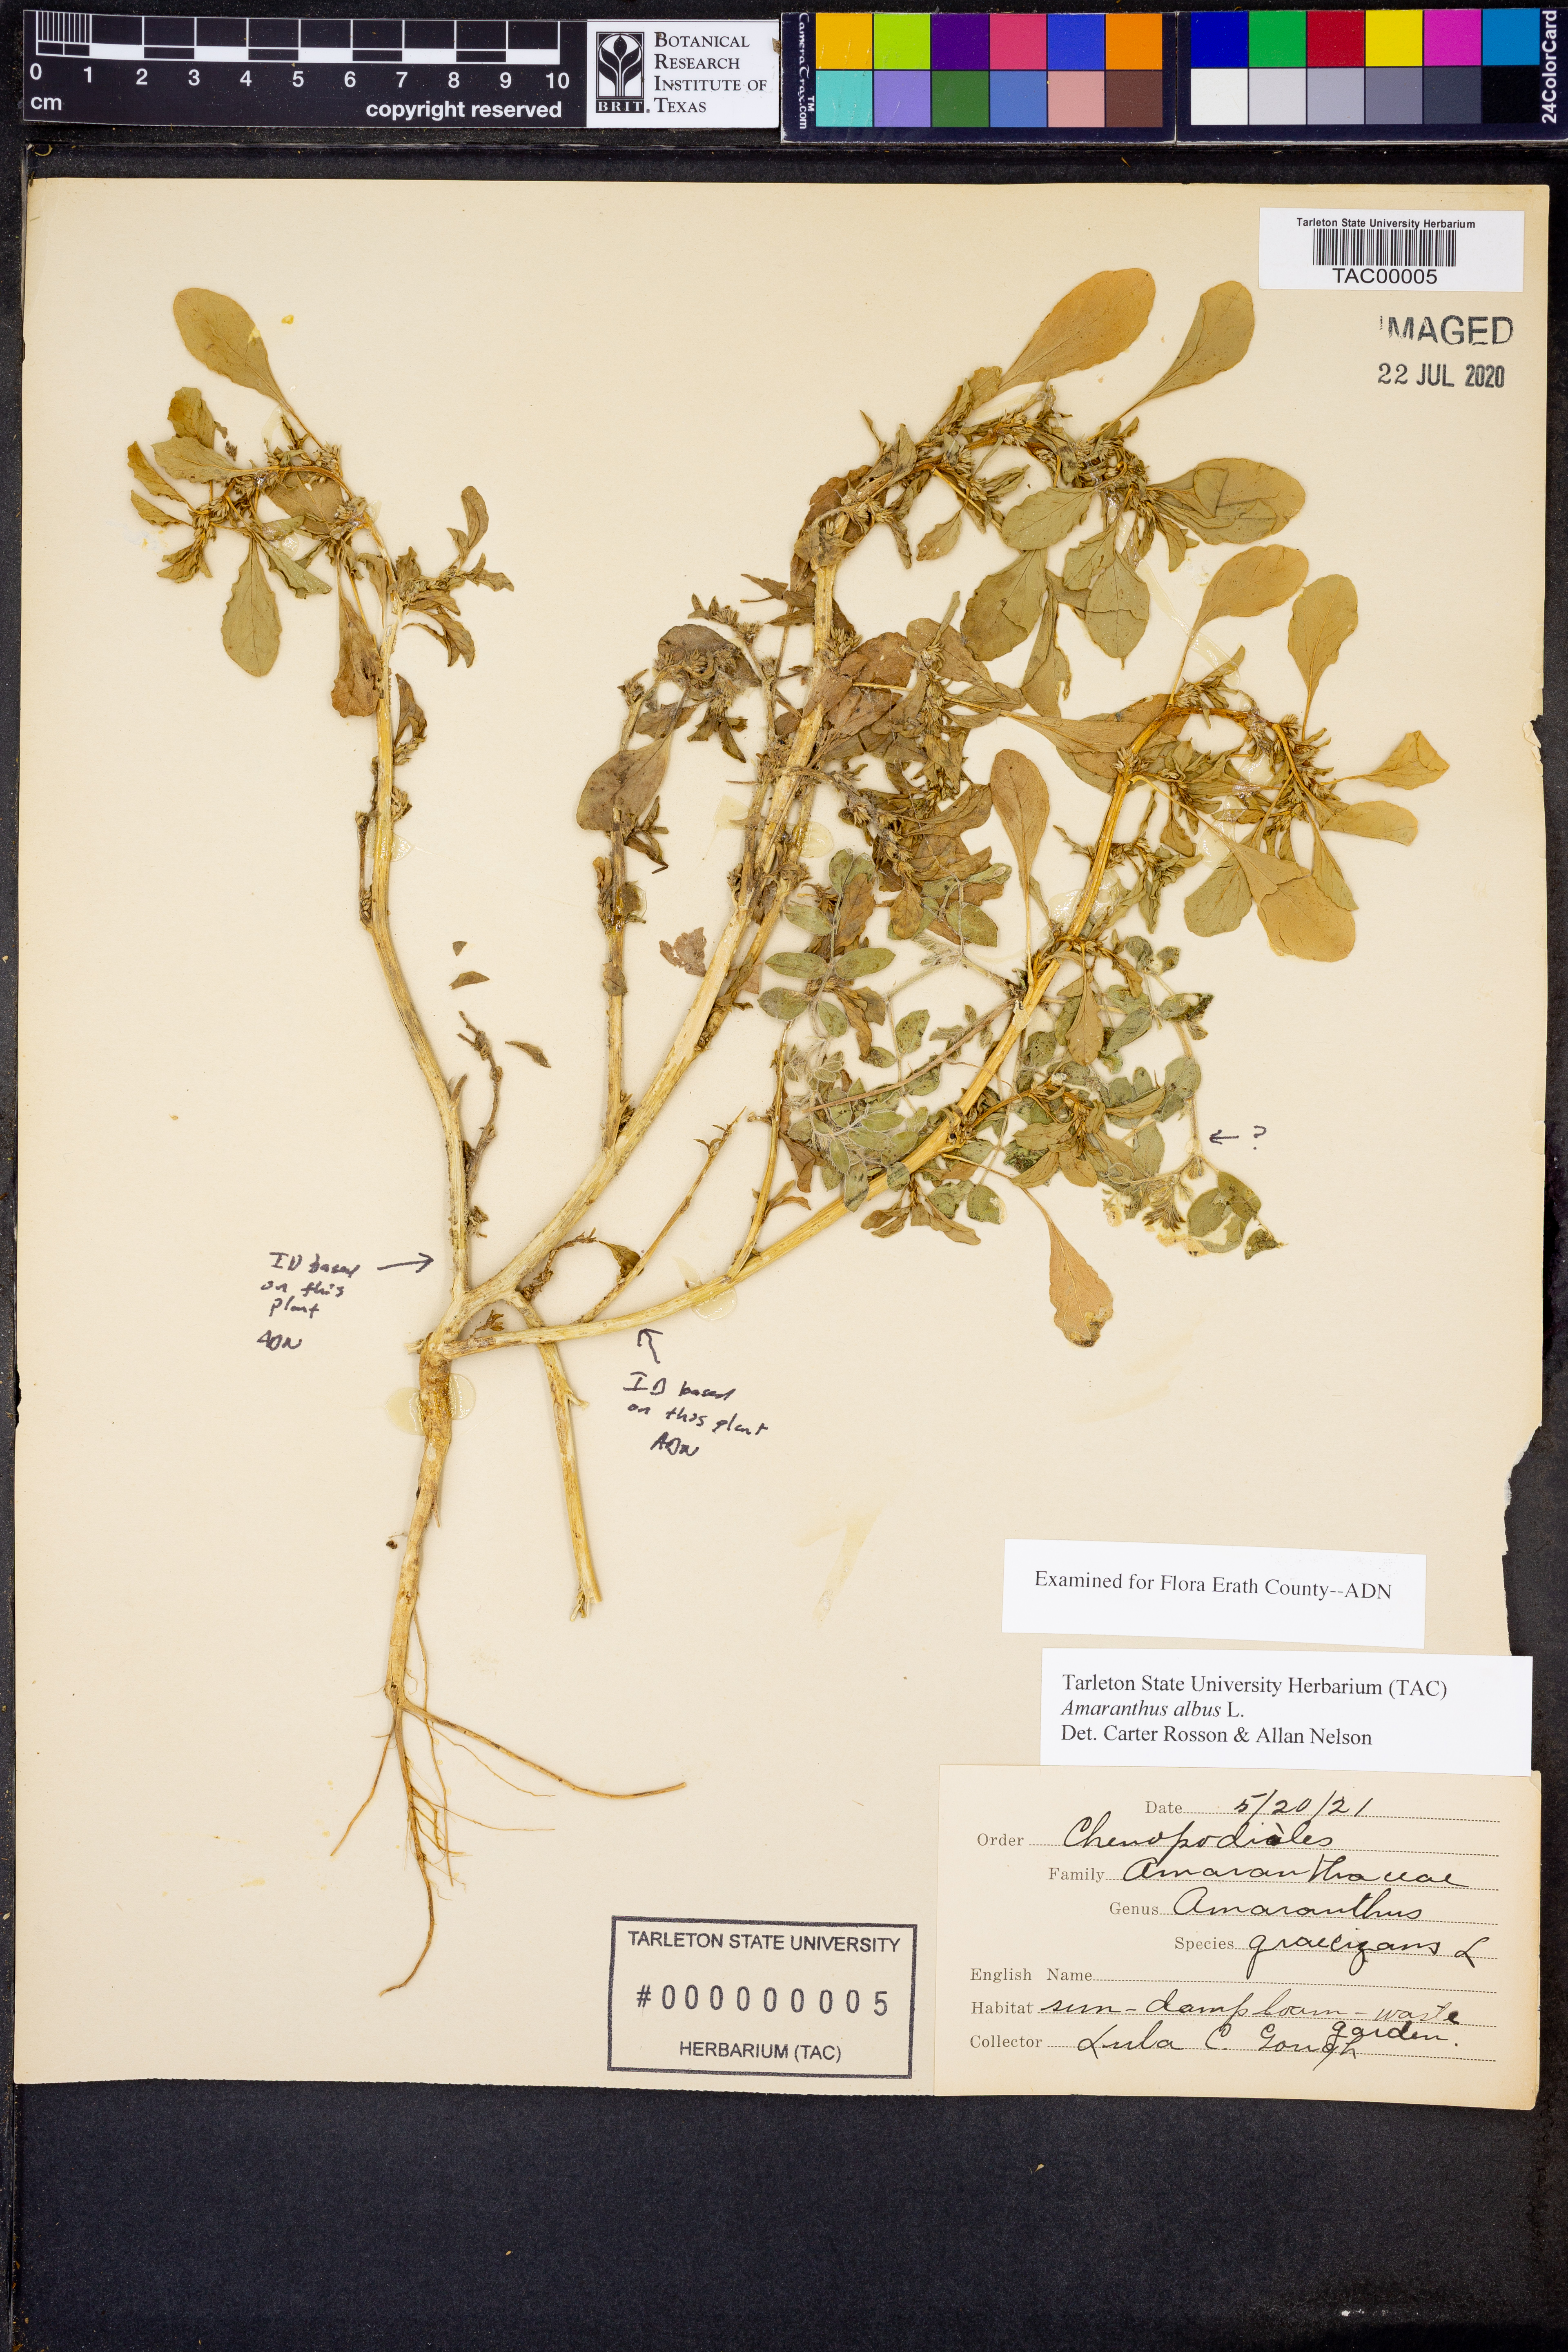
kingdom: Plantae
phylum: Tracheophyta
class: Magnoliopsida
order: Caryophyllales
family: Amaranthaceae
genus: Amaranthus
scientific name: Amaranthus albus
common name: White pigweed
